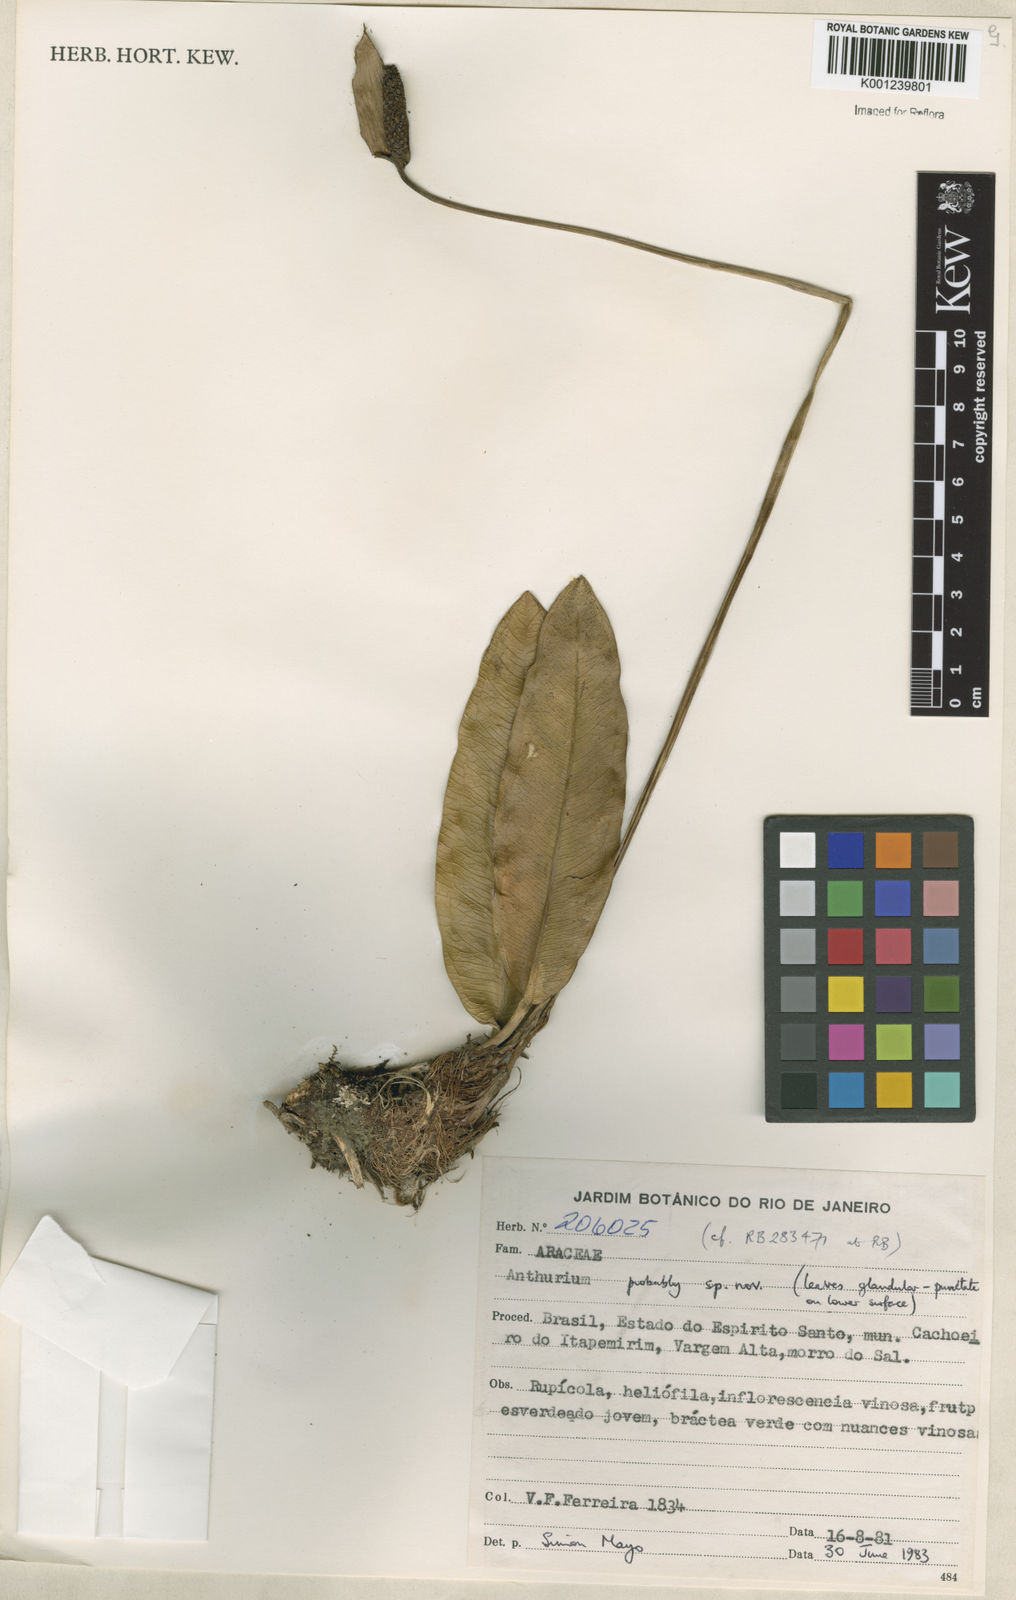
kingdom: Plantae
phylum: Tracheophyta
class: Liliopsida
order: Alismatales
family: Araceae
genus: Anthurium
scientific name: Anthurium
